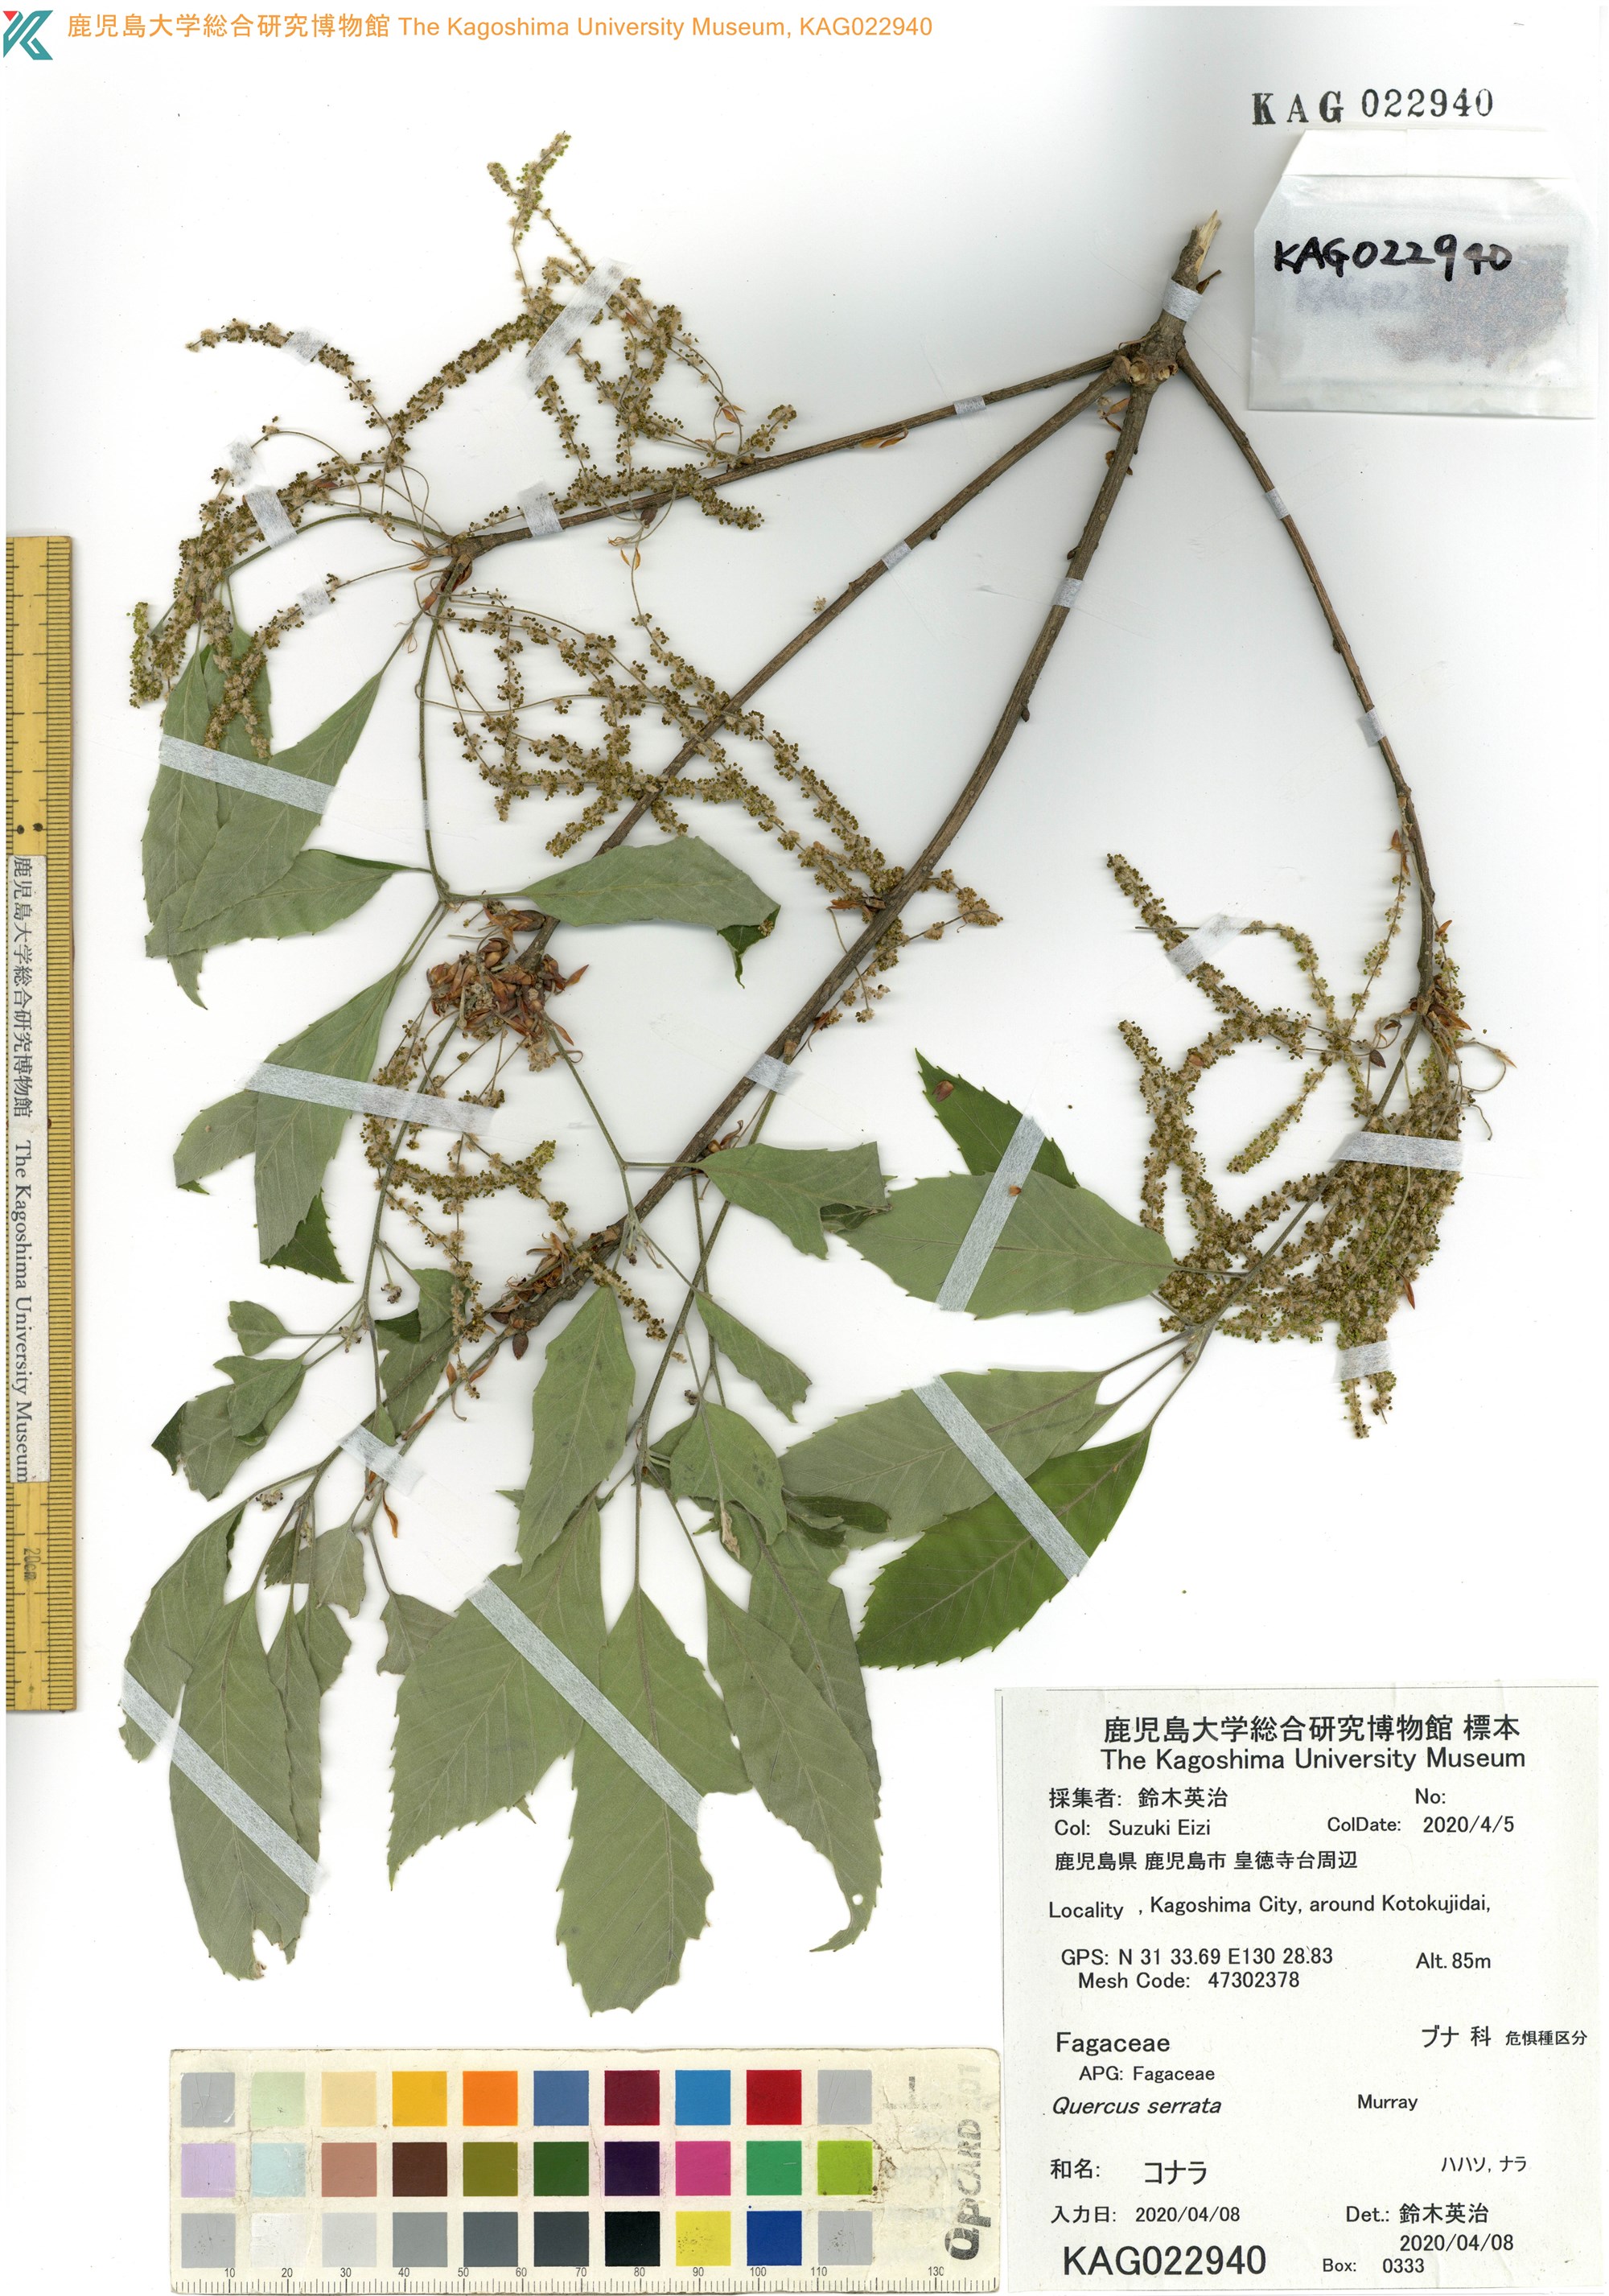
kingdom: Plantae
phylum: Tracheophyta
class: Magnoliopsida
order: Fagales
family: Fagaceae
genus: Quercus
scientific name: Quercus serrata
